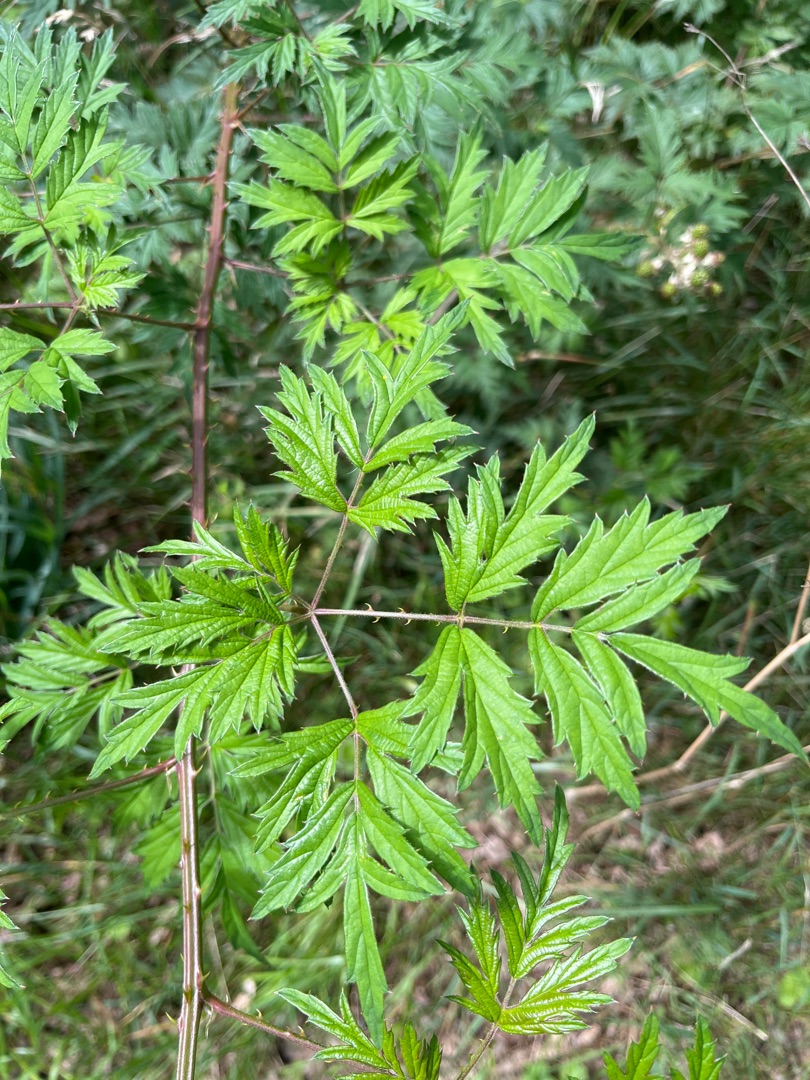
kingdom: Plantae
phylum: Tracheophyta
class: Magnoliopsida
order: Rosales
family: Rosaceae
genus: Rubus
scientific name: Rubus laciniatus
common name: Fliget brombær
